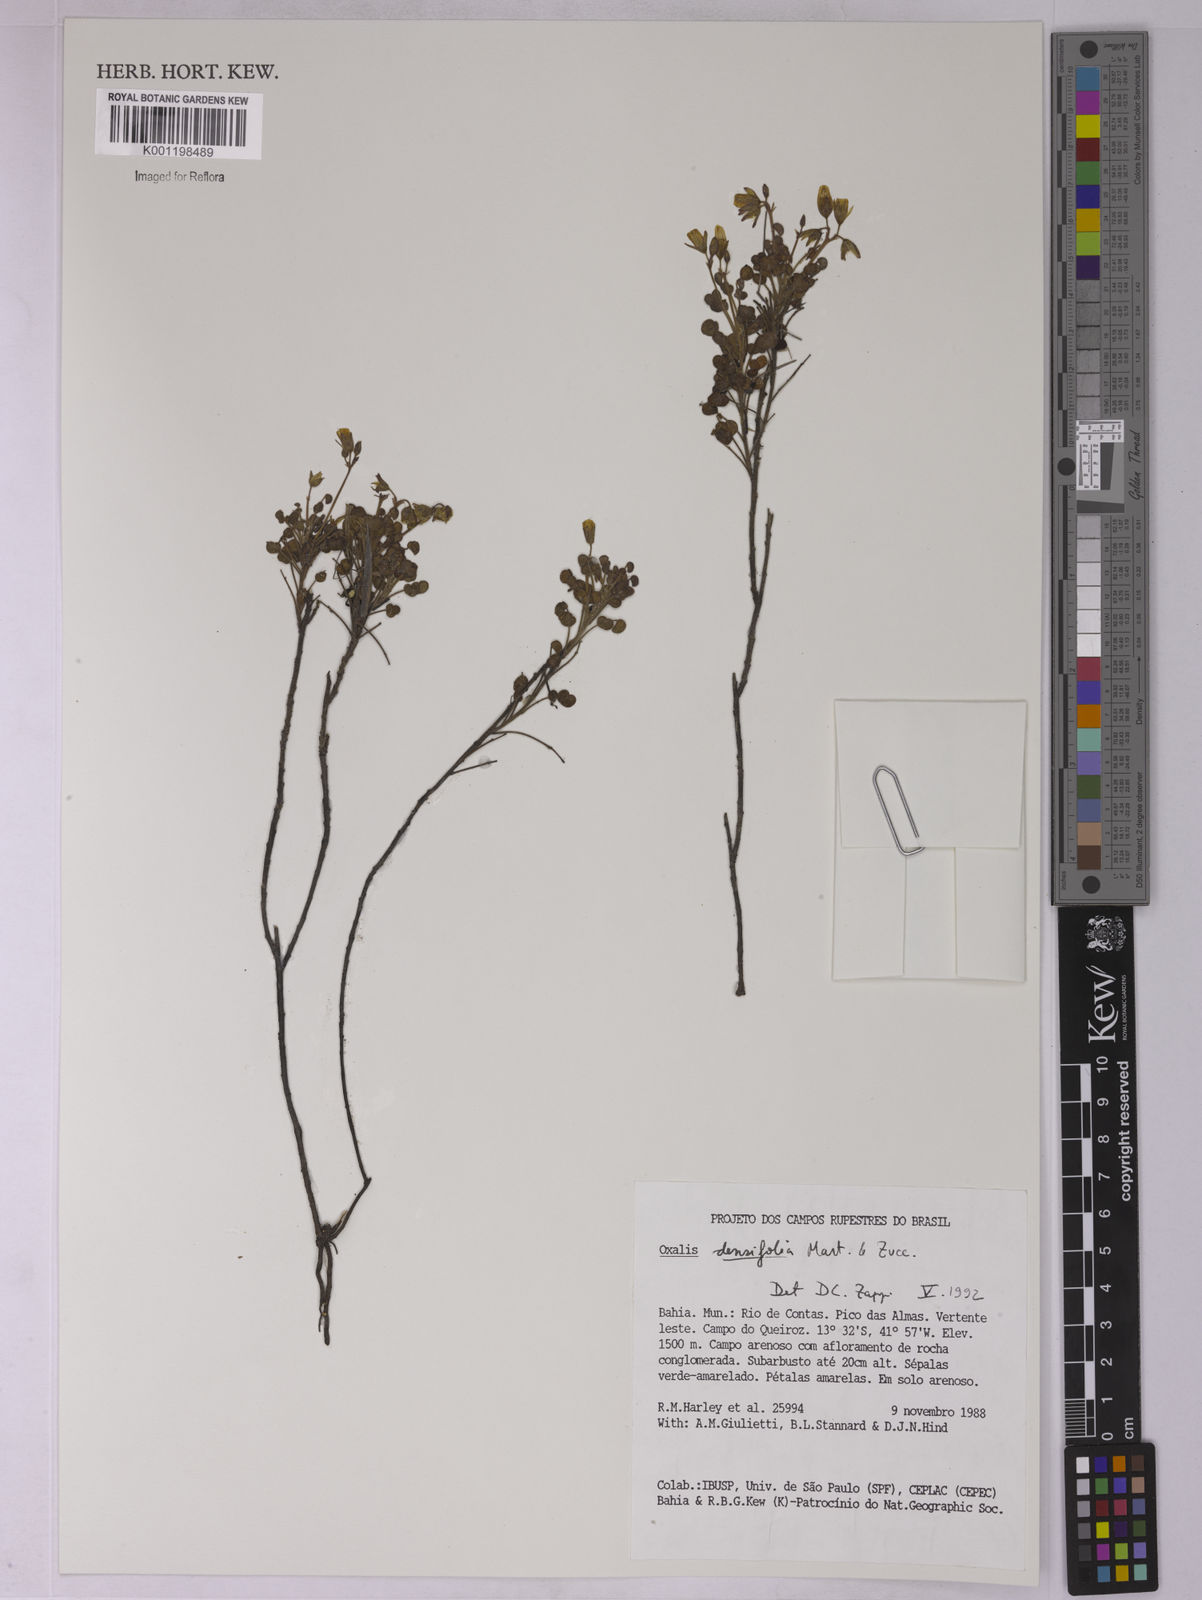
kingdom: Plantae
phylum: Tracheophyta
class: Magnoliopsida
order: Oxalidales
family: Oxalidaceae
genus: Oxalis
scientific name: Oxalis cerradoana
